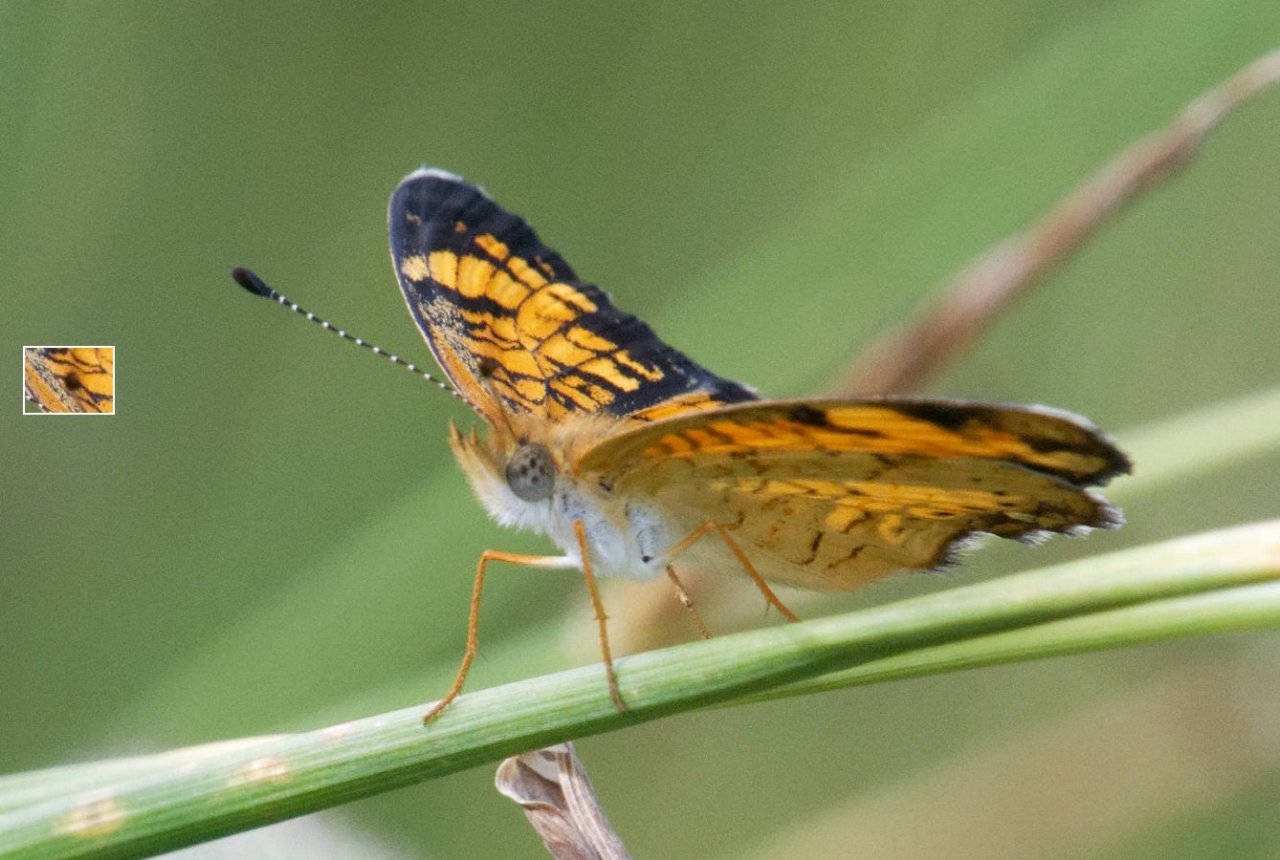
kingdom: Animalia
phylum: Arthropoda
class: Insecta
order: Lepidoptera
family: Nymphalidae
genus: Phyciodes
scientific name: Phyciodes tharos
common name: Pearl Crescent
